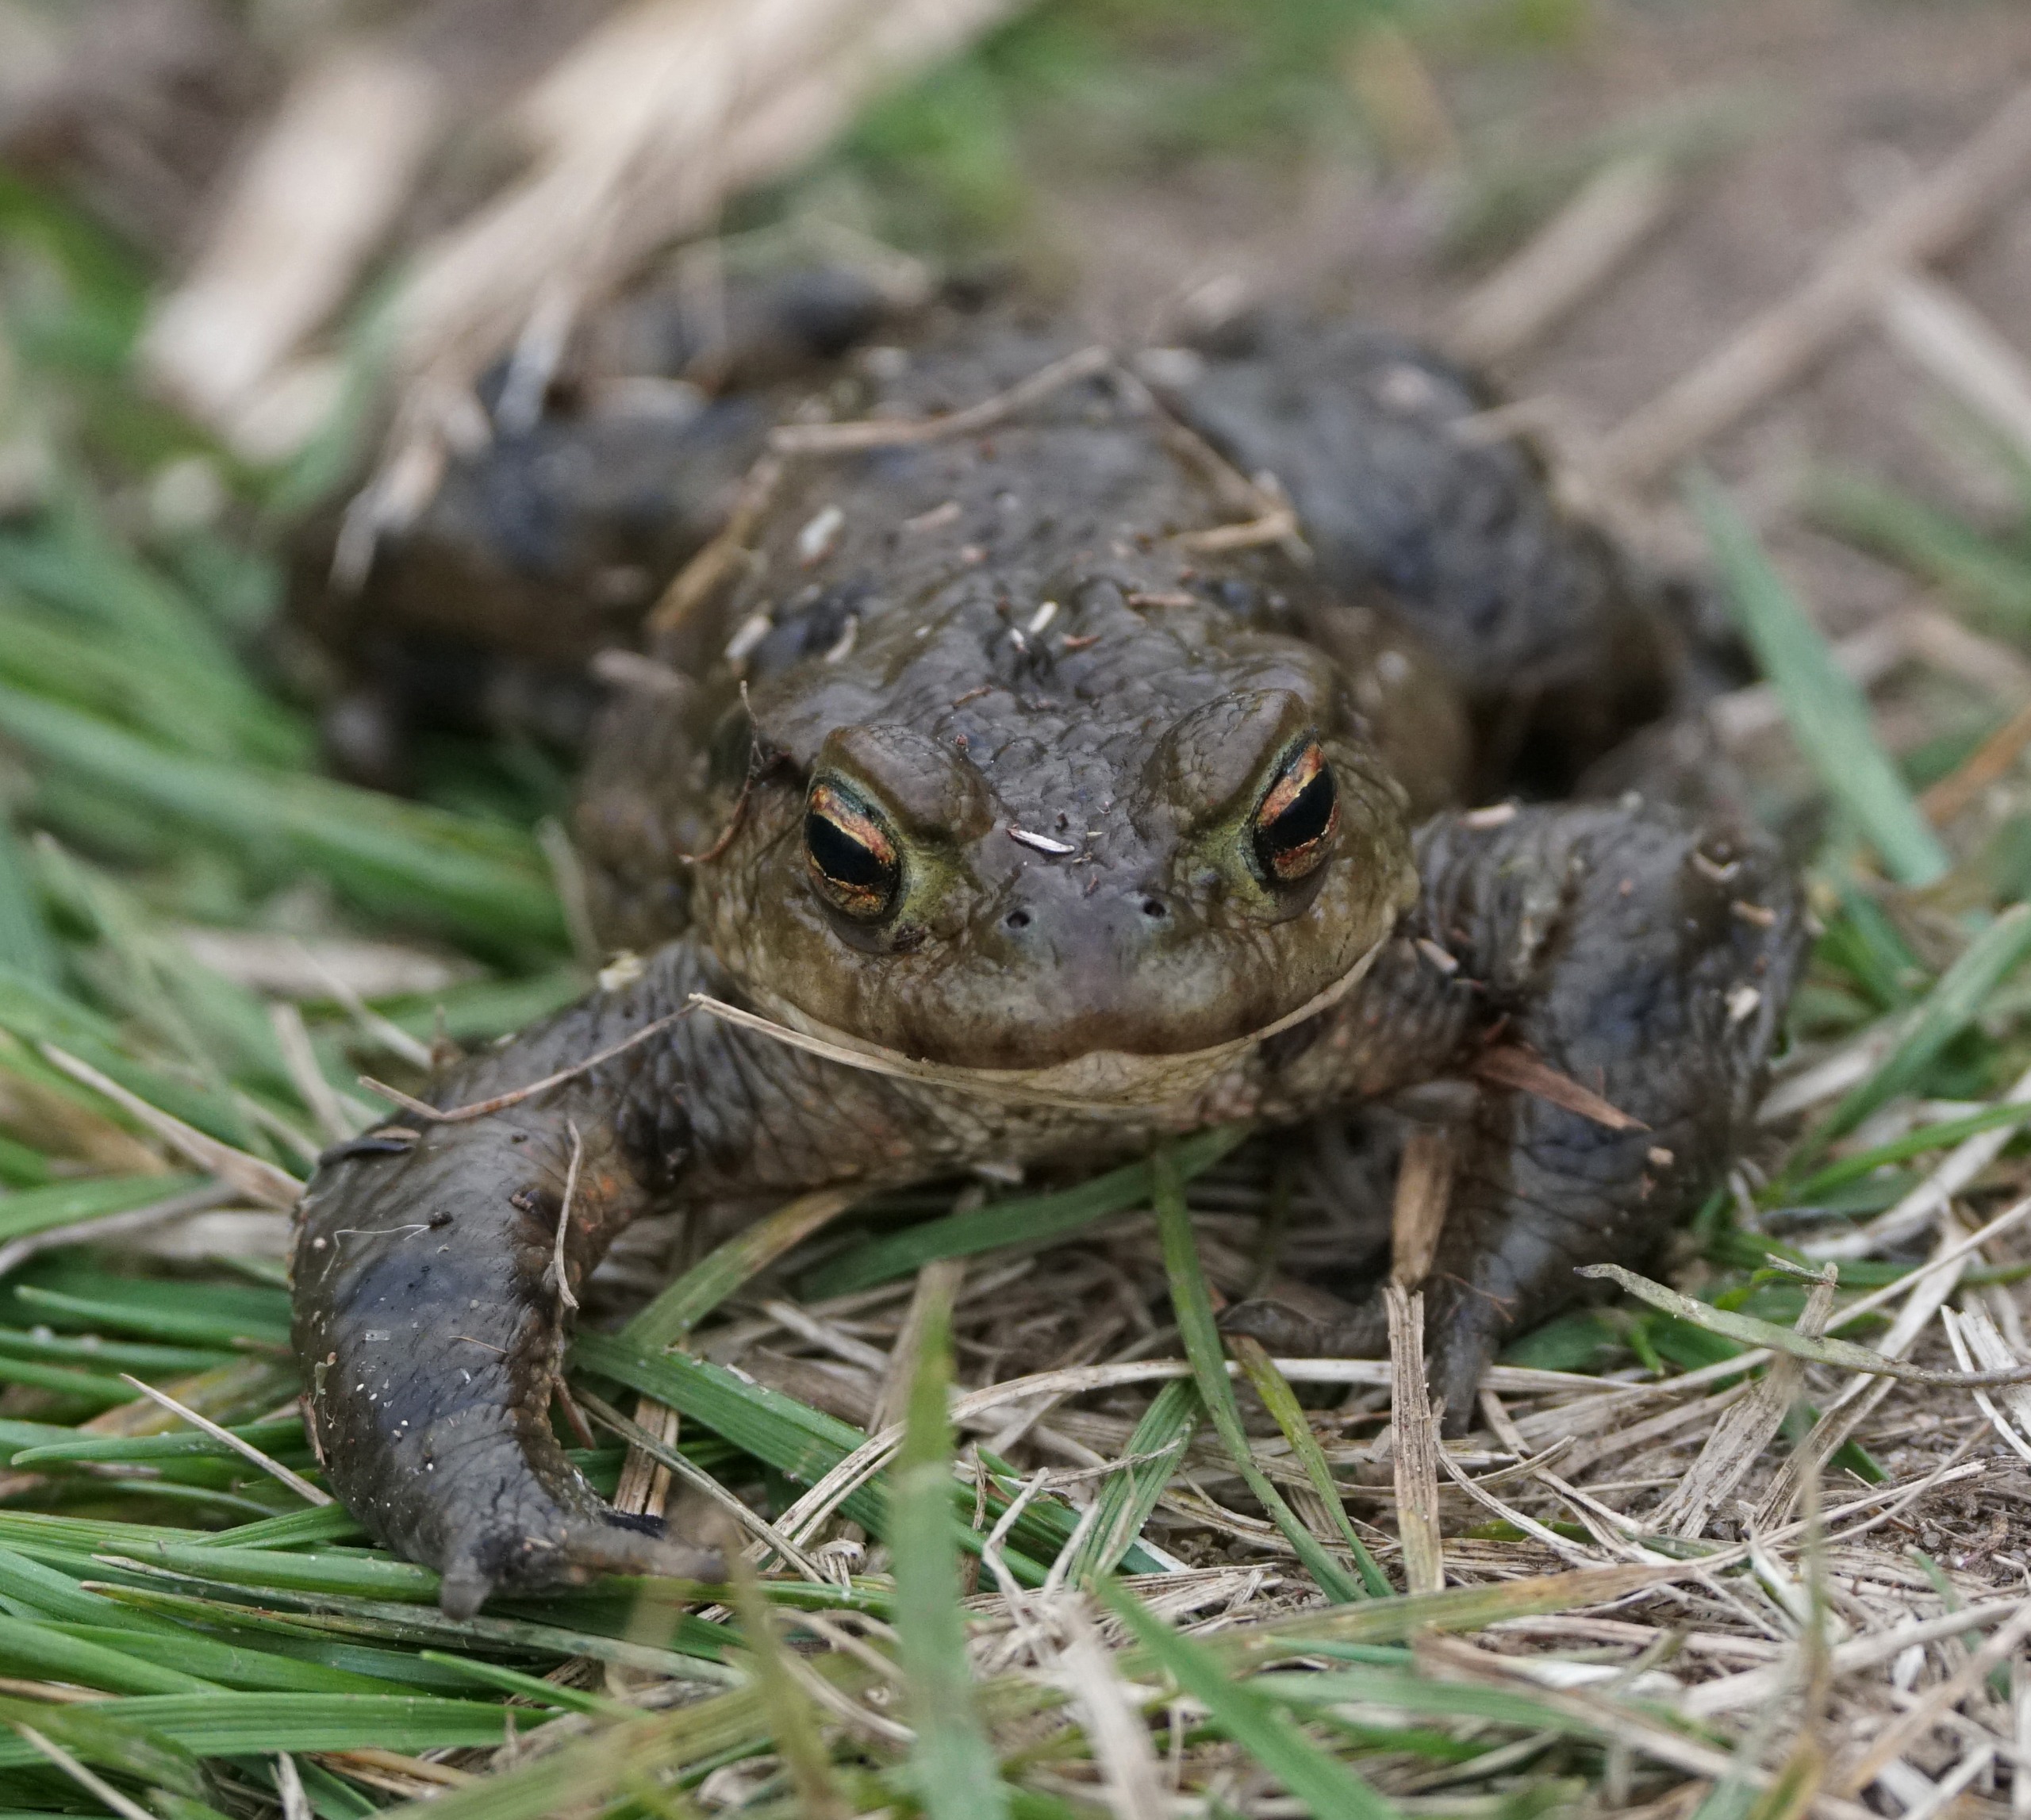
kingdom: Animalia
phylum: Chordata
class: Amphibia
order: Anura
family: Bufonidae
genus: Bufo
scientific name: Bufo bufo
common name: Skrubtudse
